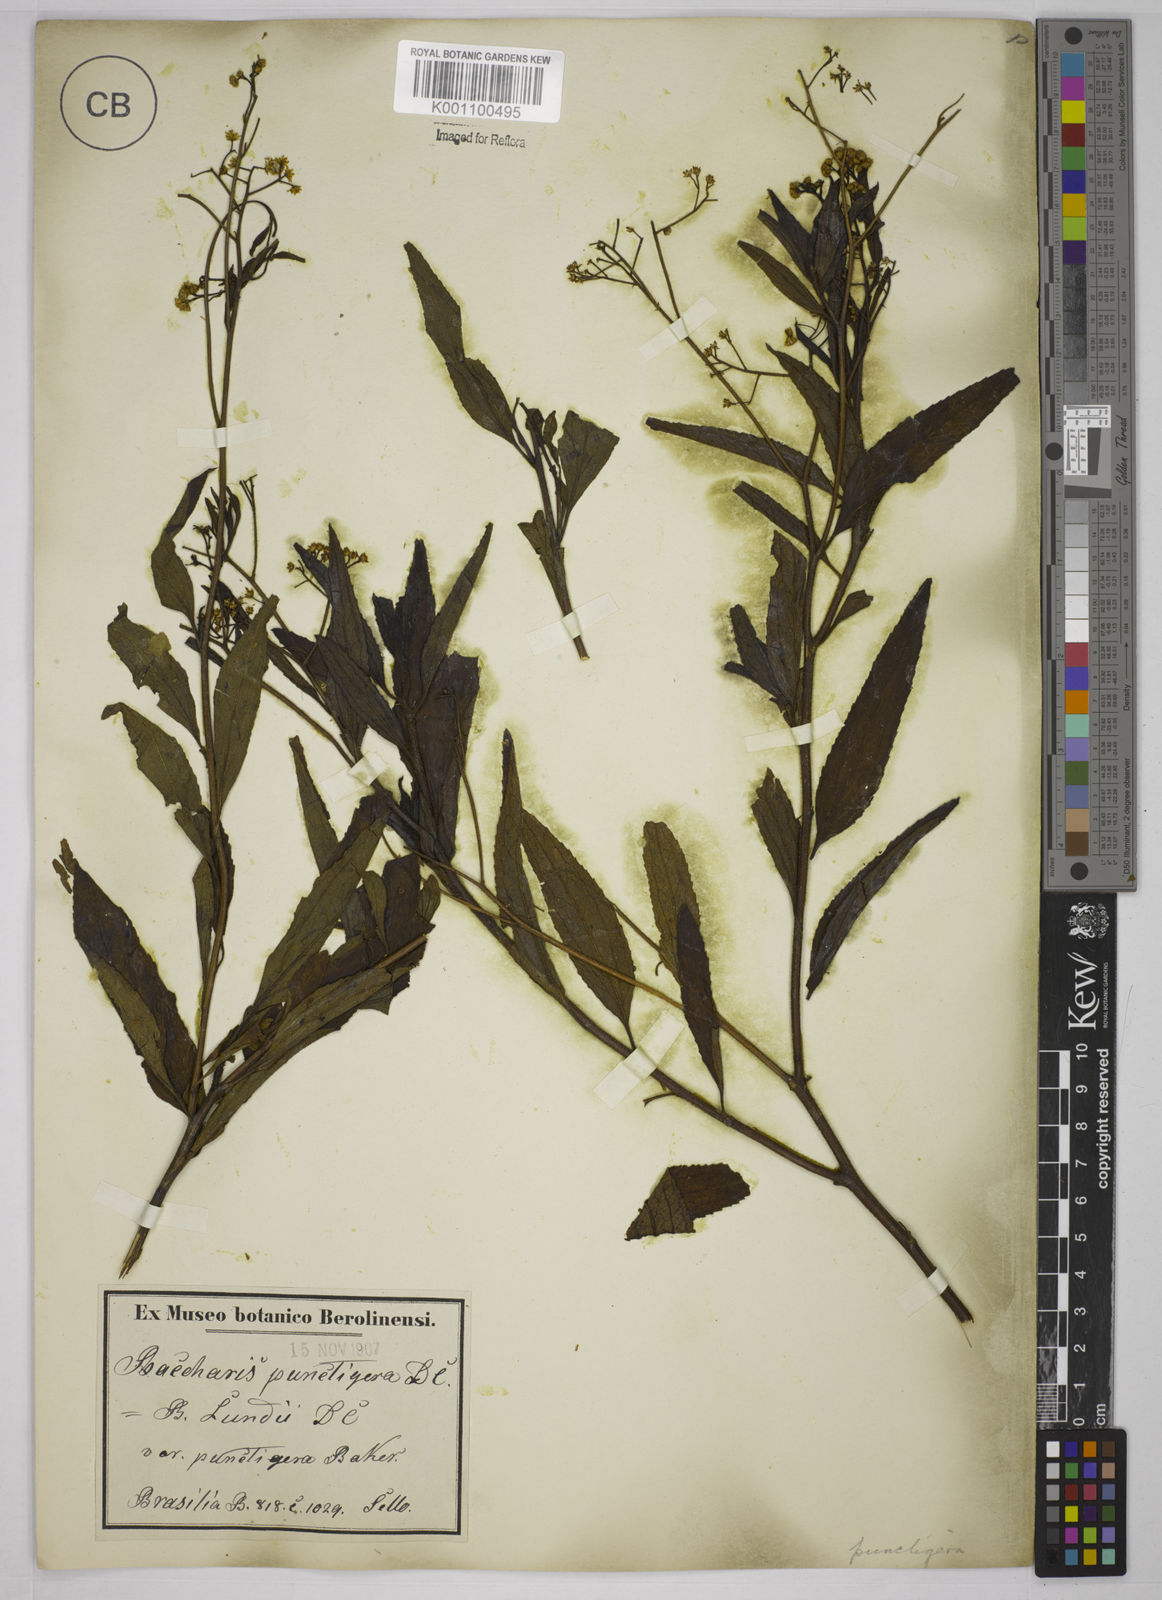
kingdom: Plantae
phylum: Tracheophyta
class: Magnoliopsida
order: Asterales
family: Asteraceae
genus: Baccharis
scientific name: Baccharis serrulata
